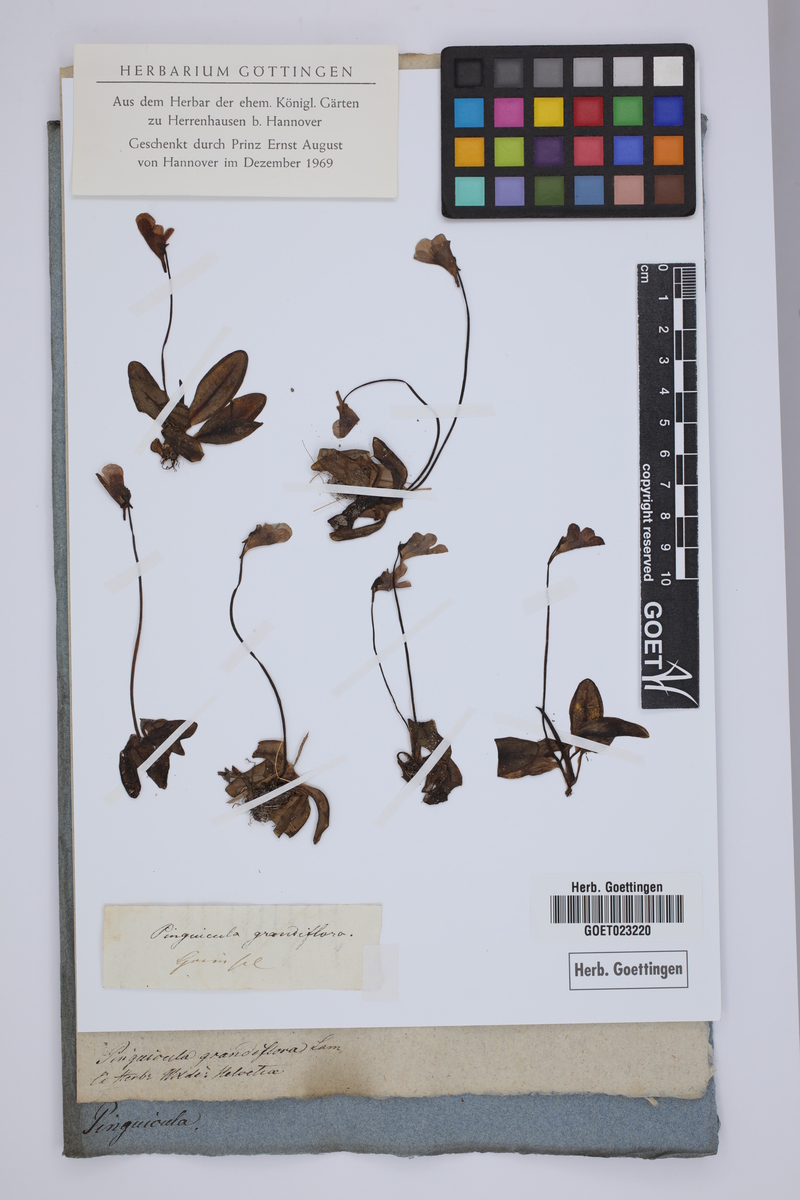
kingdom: Plantae
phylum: Tracheophyta
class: Magnoliopsida
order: Lamiales
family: Lentibulariaceae
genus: Pinguicula
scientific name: Pinguicula grandiflora
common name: Large-flowered butterwort
